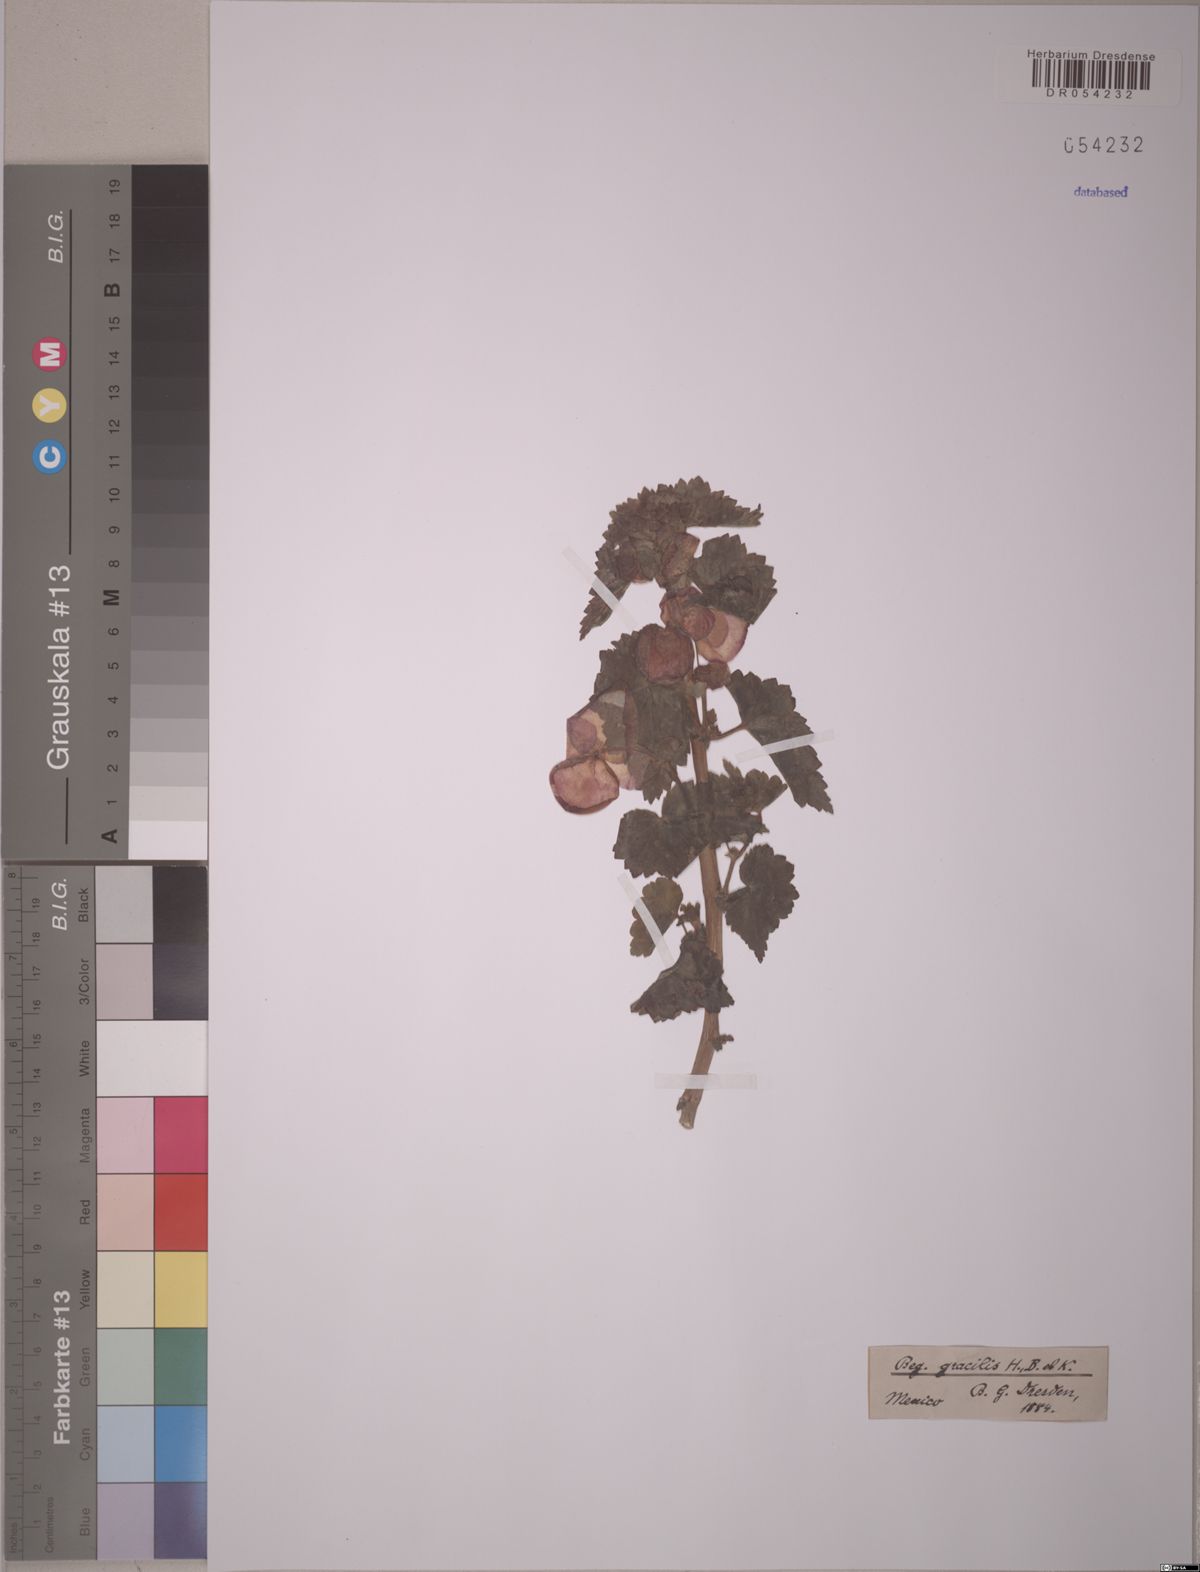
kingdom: Plantae
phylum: Tracheophyta
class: Magnoliopsida
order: Cucurbitales
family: Begoniaceae
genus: Begonia
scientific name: Begonia gracilis
